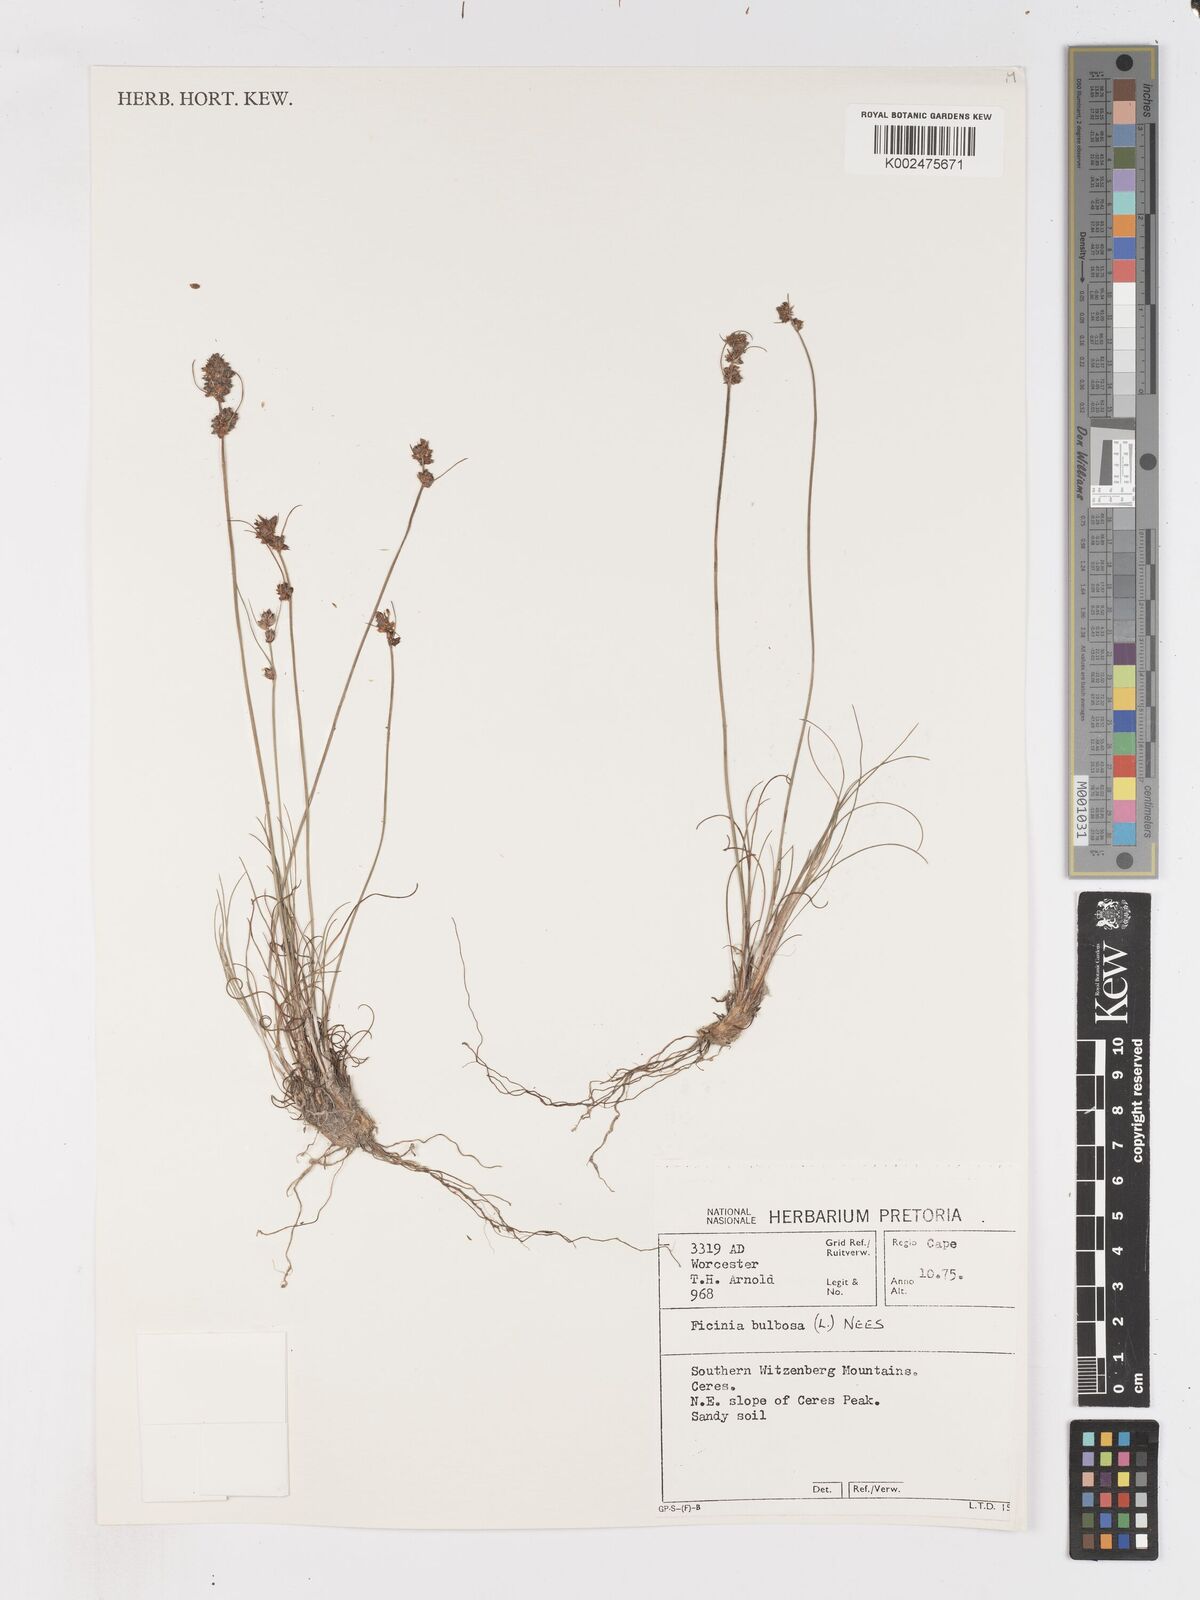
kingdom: Plantae
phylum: Tracheophyta
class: Liliopsida
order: Poales
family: Cyperaceae
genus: Ficinia
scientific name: Ficinia bulbosa
